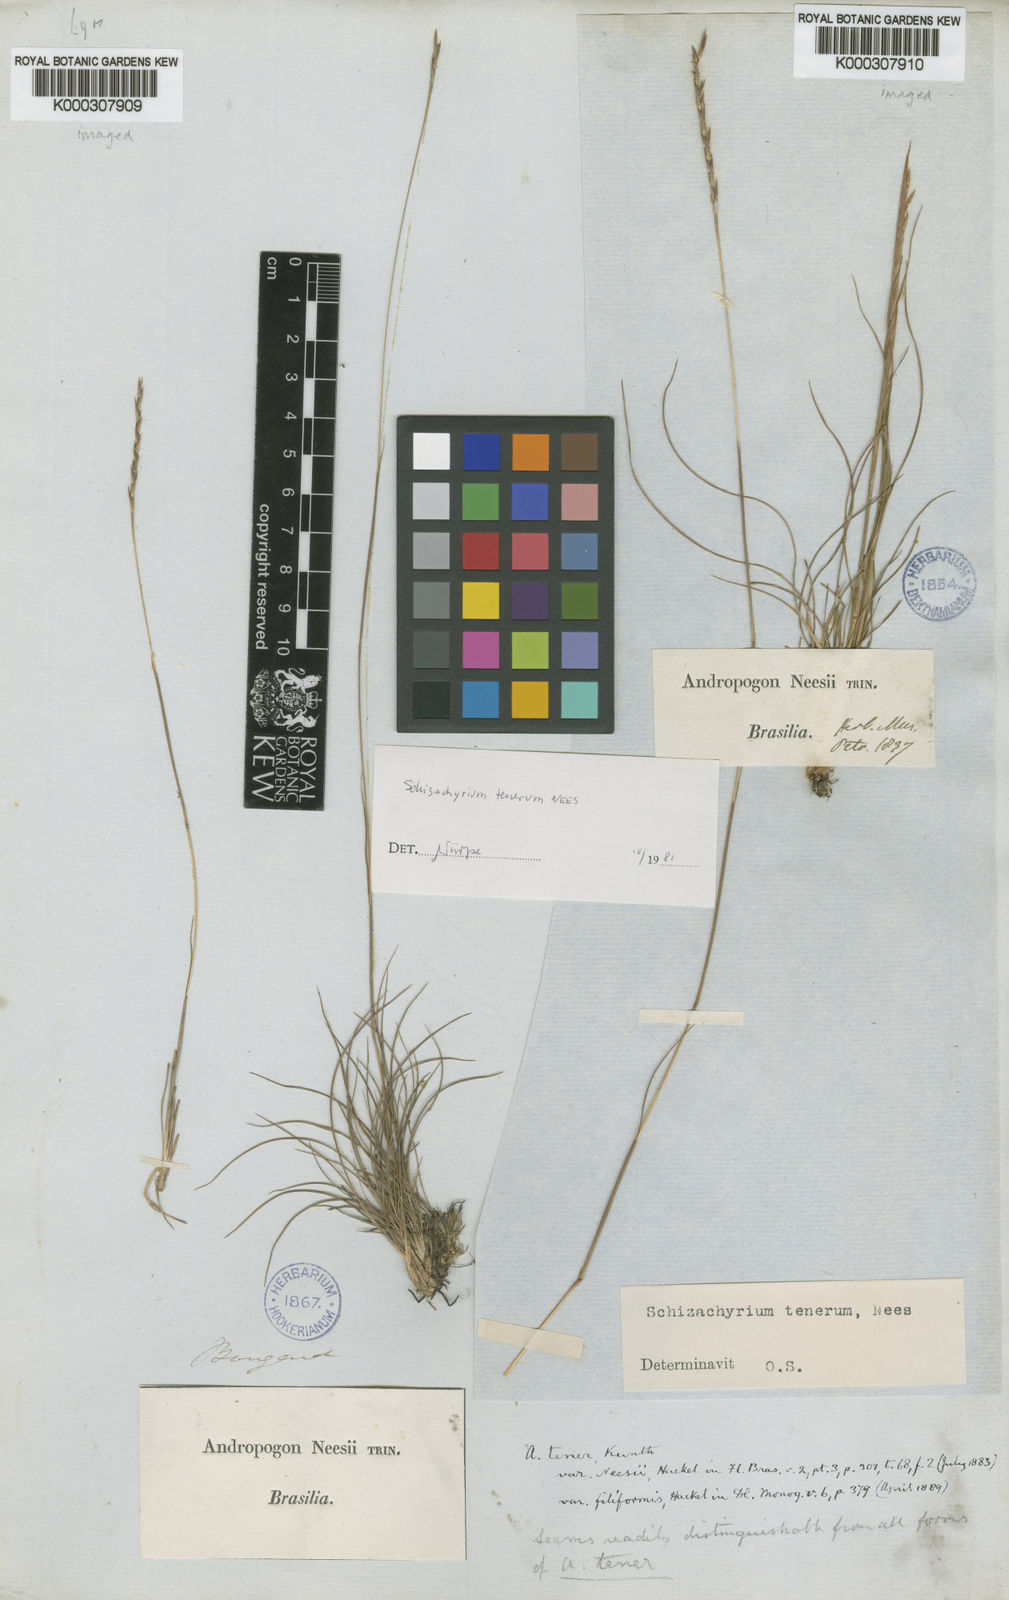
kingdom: Plantae
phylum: Tracheophyta
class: Liliopsida
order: Poales
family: Poaceae
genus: Andropogon
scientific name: Andropogon tener
